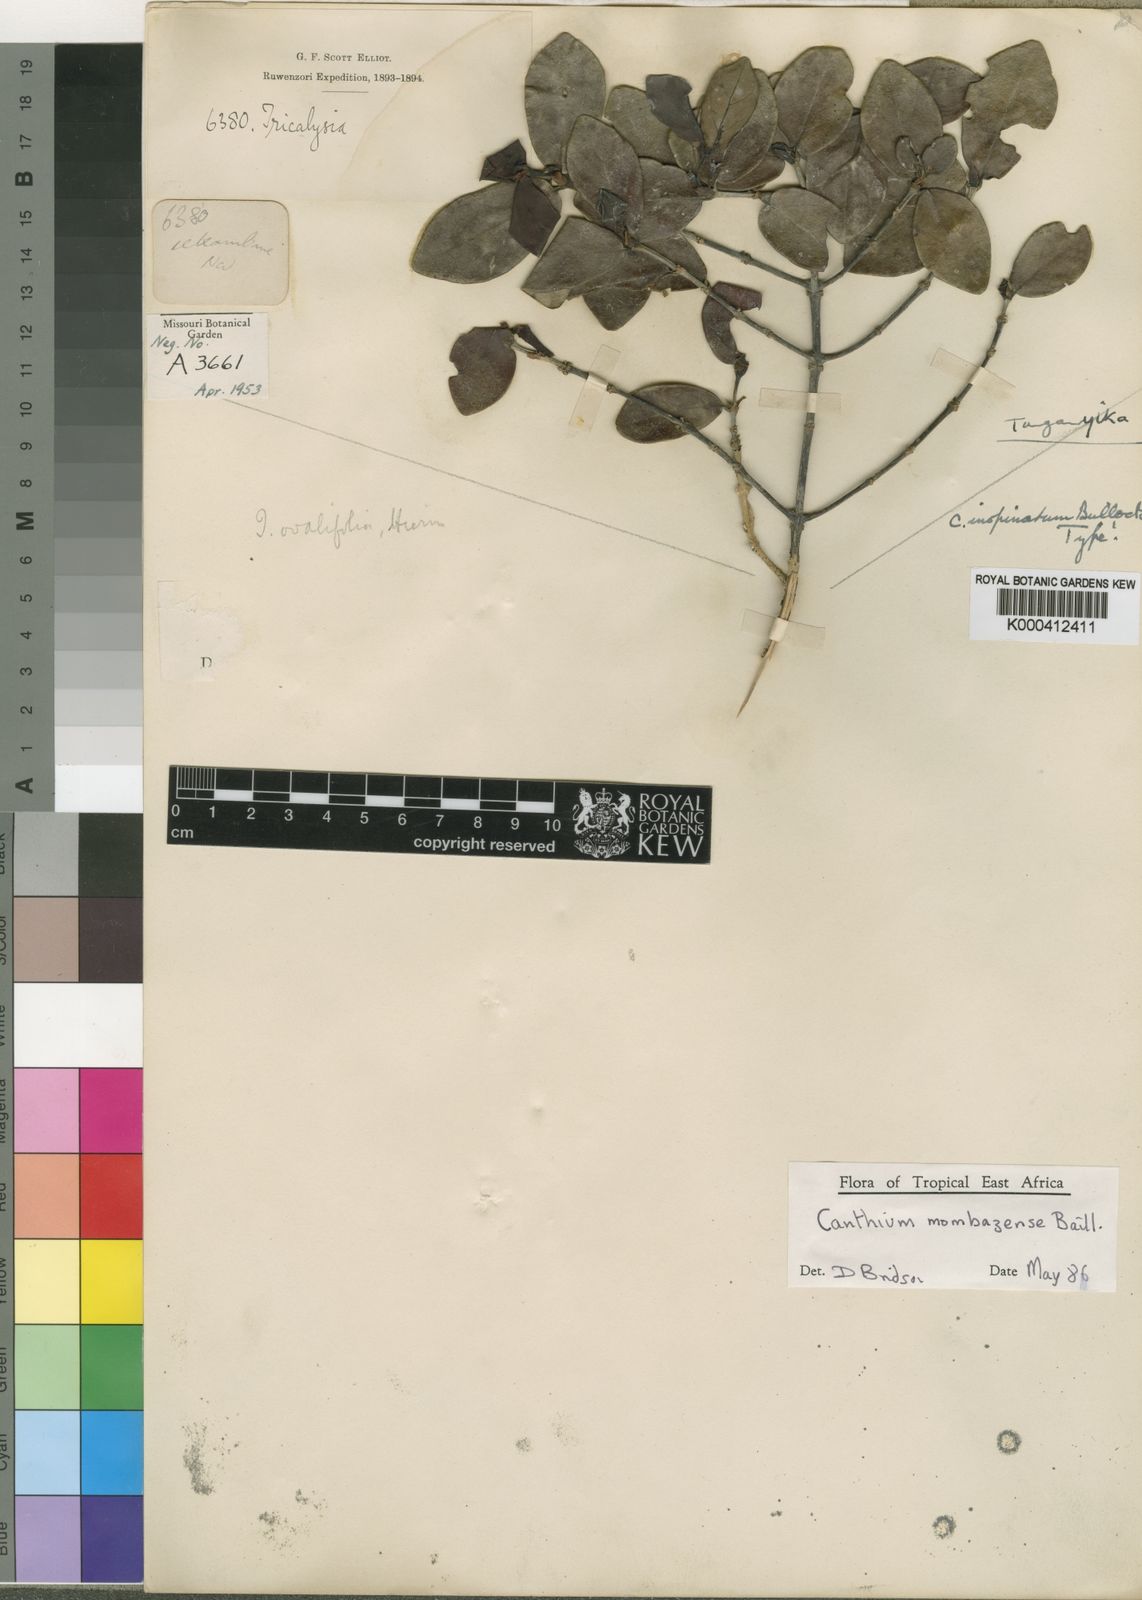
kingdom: Plantae
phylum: Tracheophyta
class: Magnoliopsida
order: Gentianales
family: Rubiaceae
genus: Bullockia
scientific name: Bullockia mombazensis
